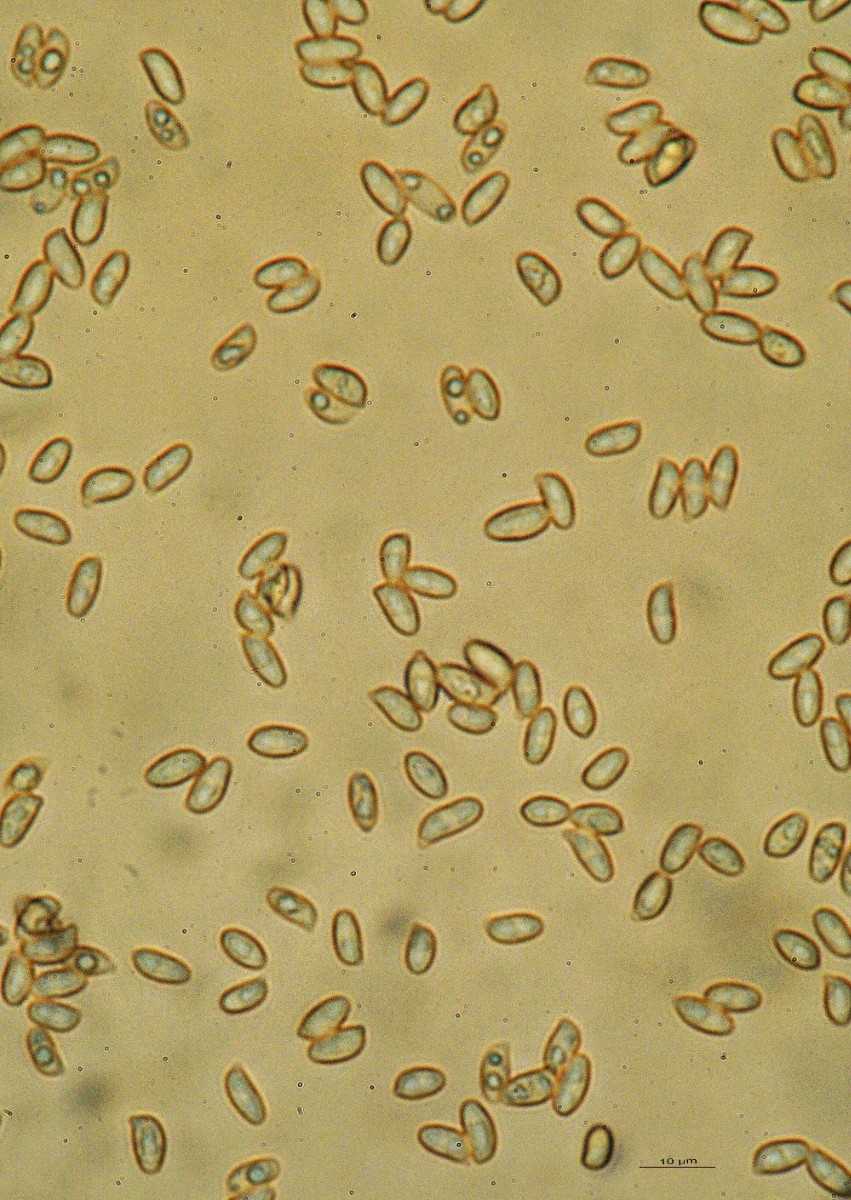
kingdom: Fungi
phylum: Basidiomycota
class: Agaricomycetes
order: Gomphales
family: Gomphaceae
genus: Ramaria
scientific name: Ramaria stricta
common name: rank koralsvamp
